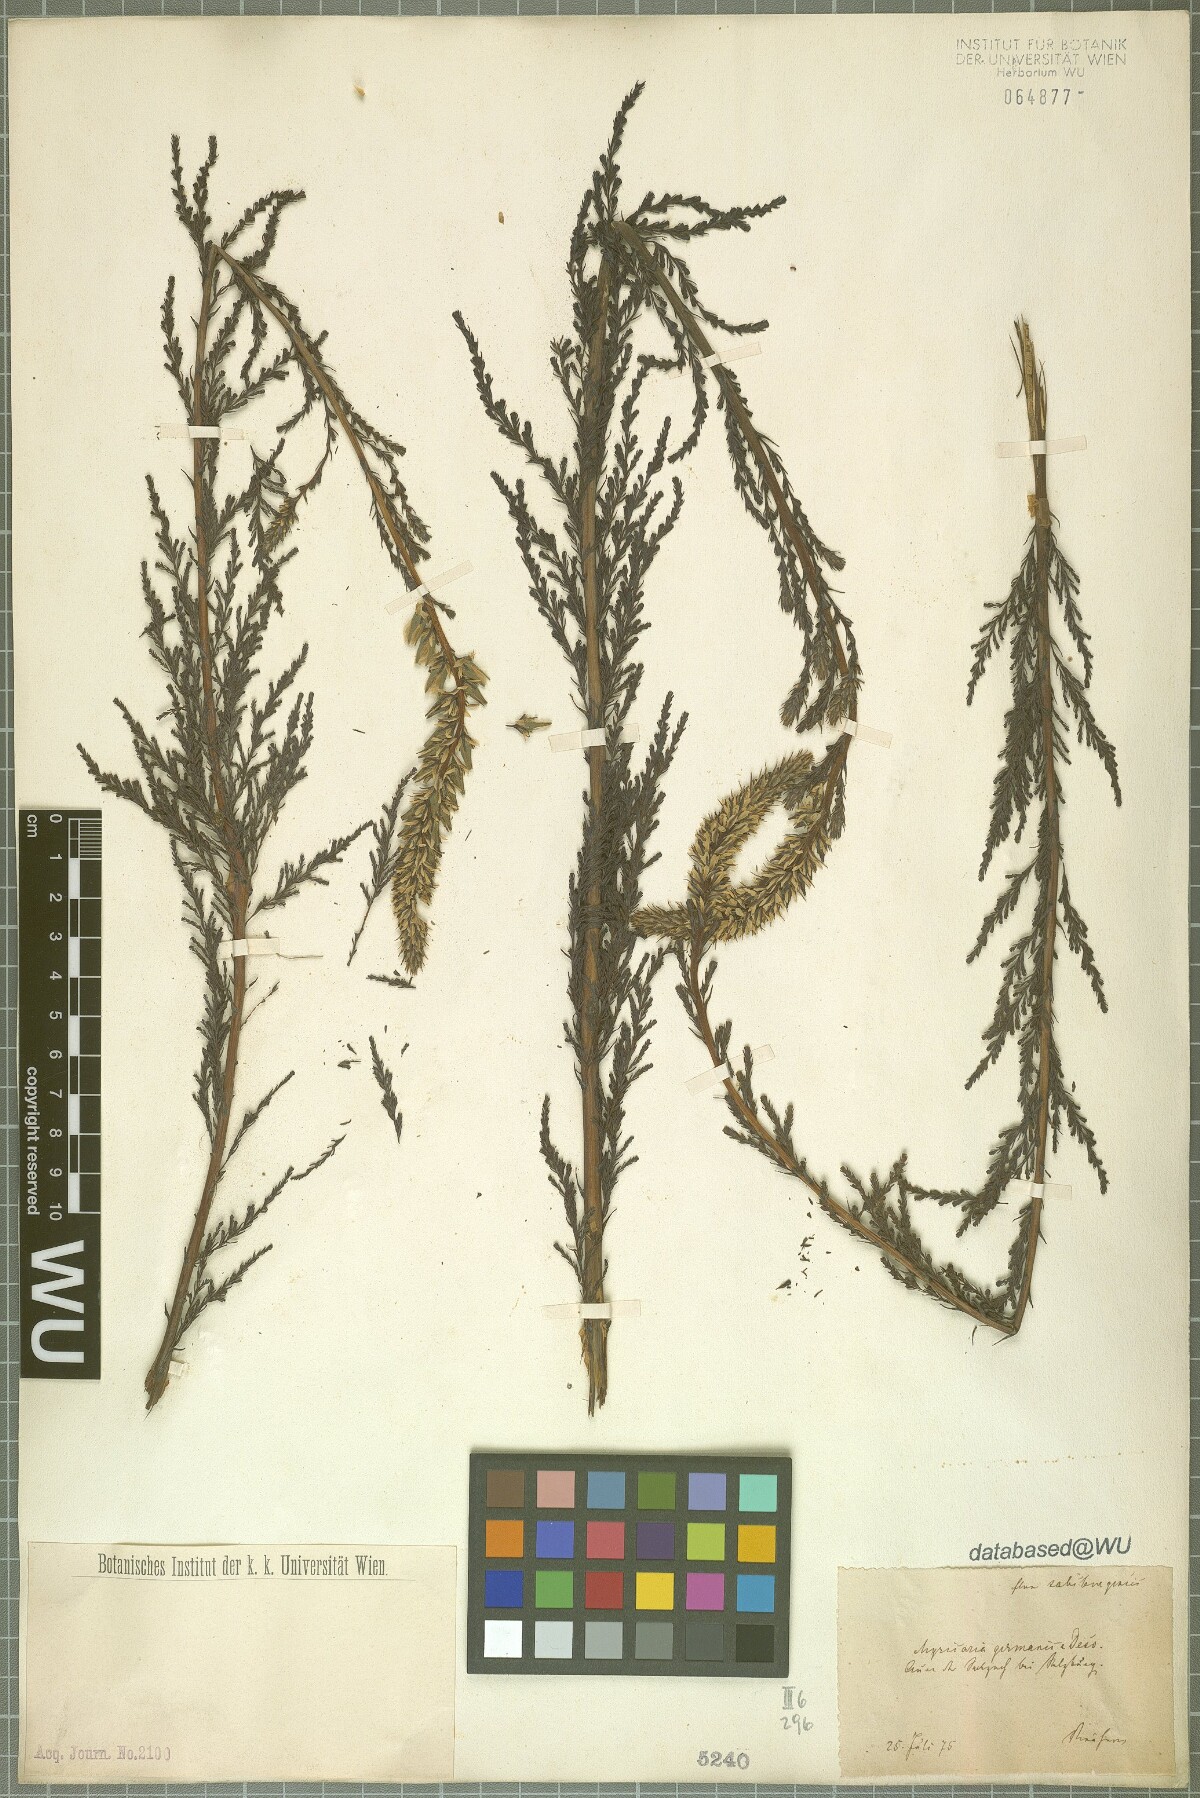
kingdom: Plantae
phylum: Tracheophyta
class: Magnoliopsida
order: Caryophyllales
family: Tamaricaceae
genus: Myricaria
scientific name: Myricaria germanica
